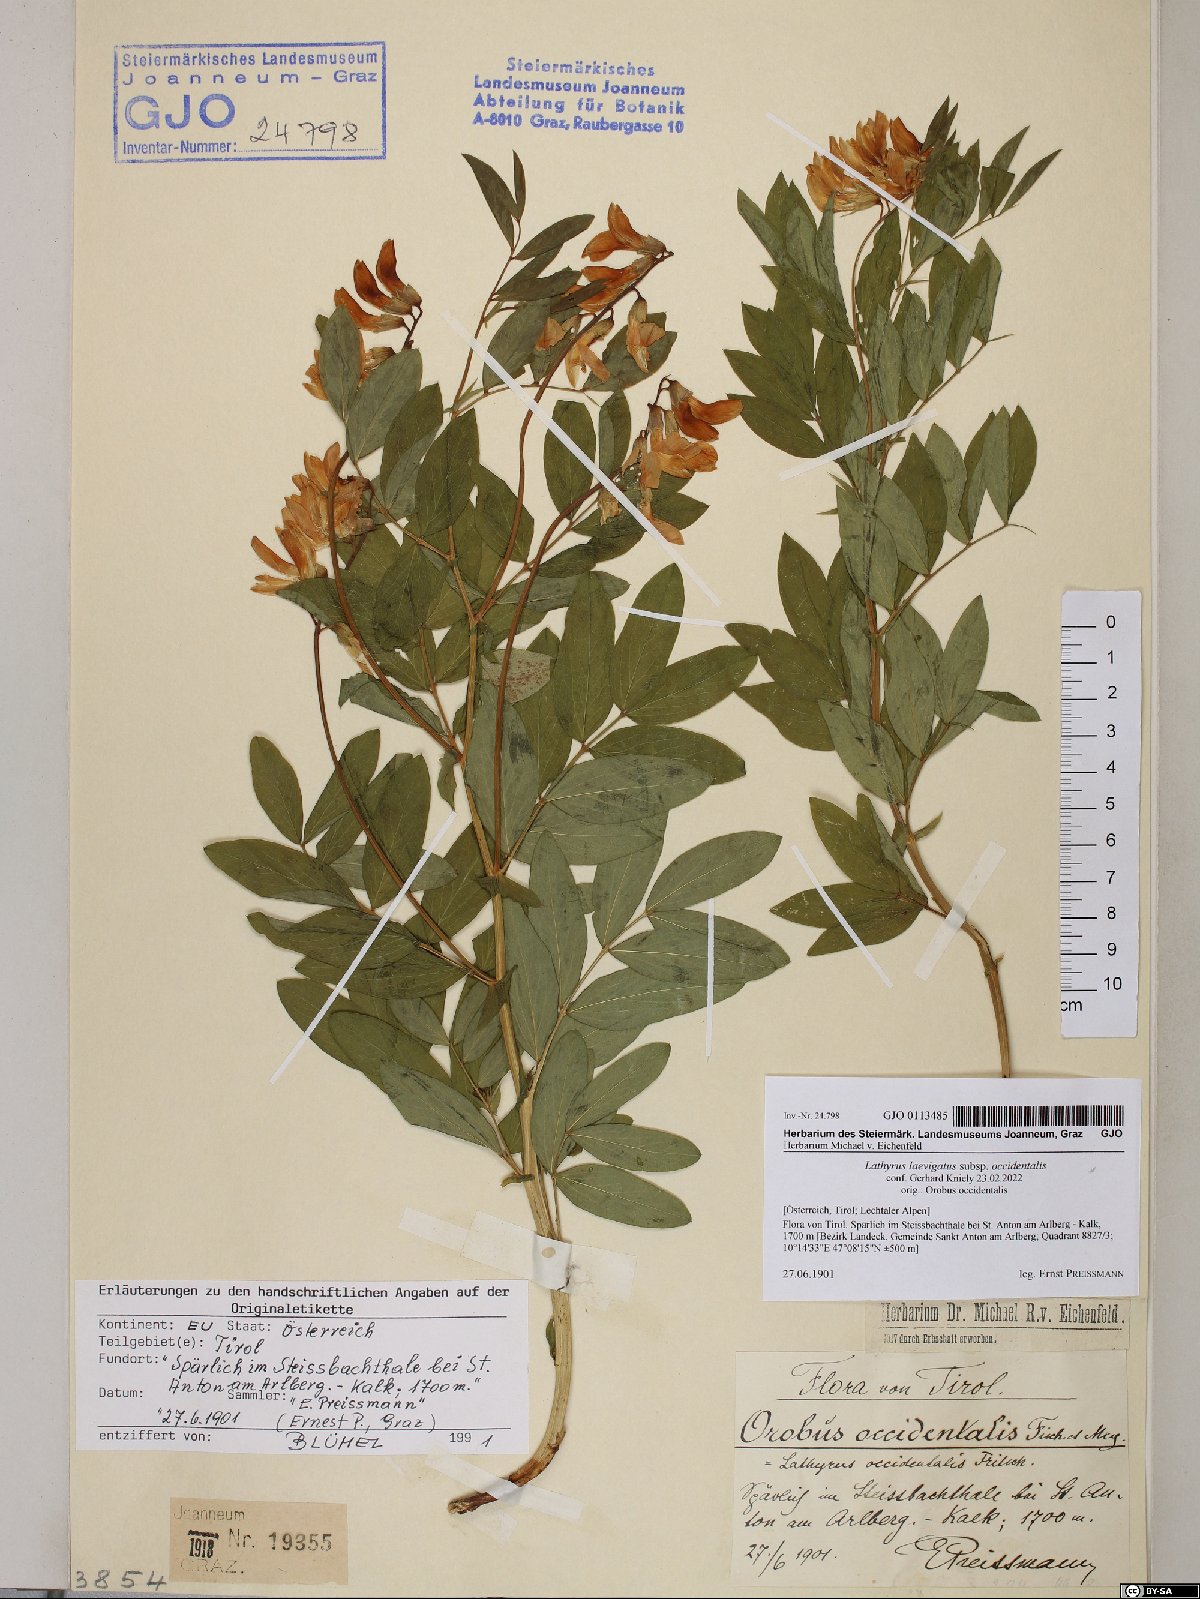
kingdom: Plantae
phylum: Tracheophyta
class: Magnoliopsida
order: Fabales
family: Fabaceae
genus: Lathyrus
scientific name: Lathyrus laevigatus
